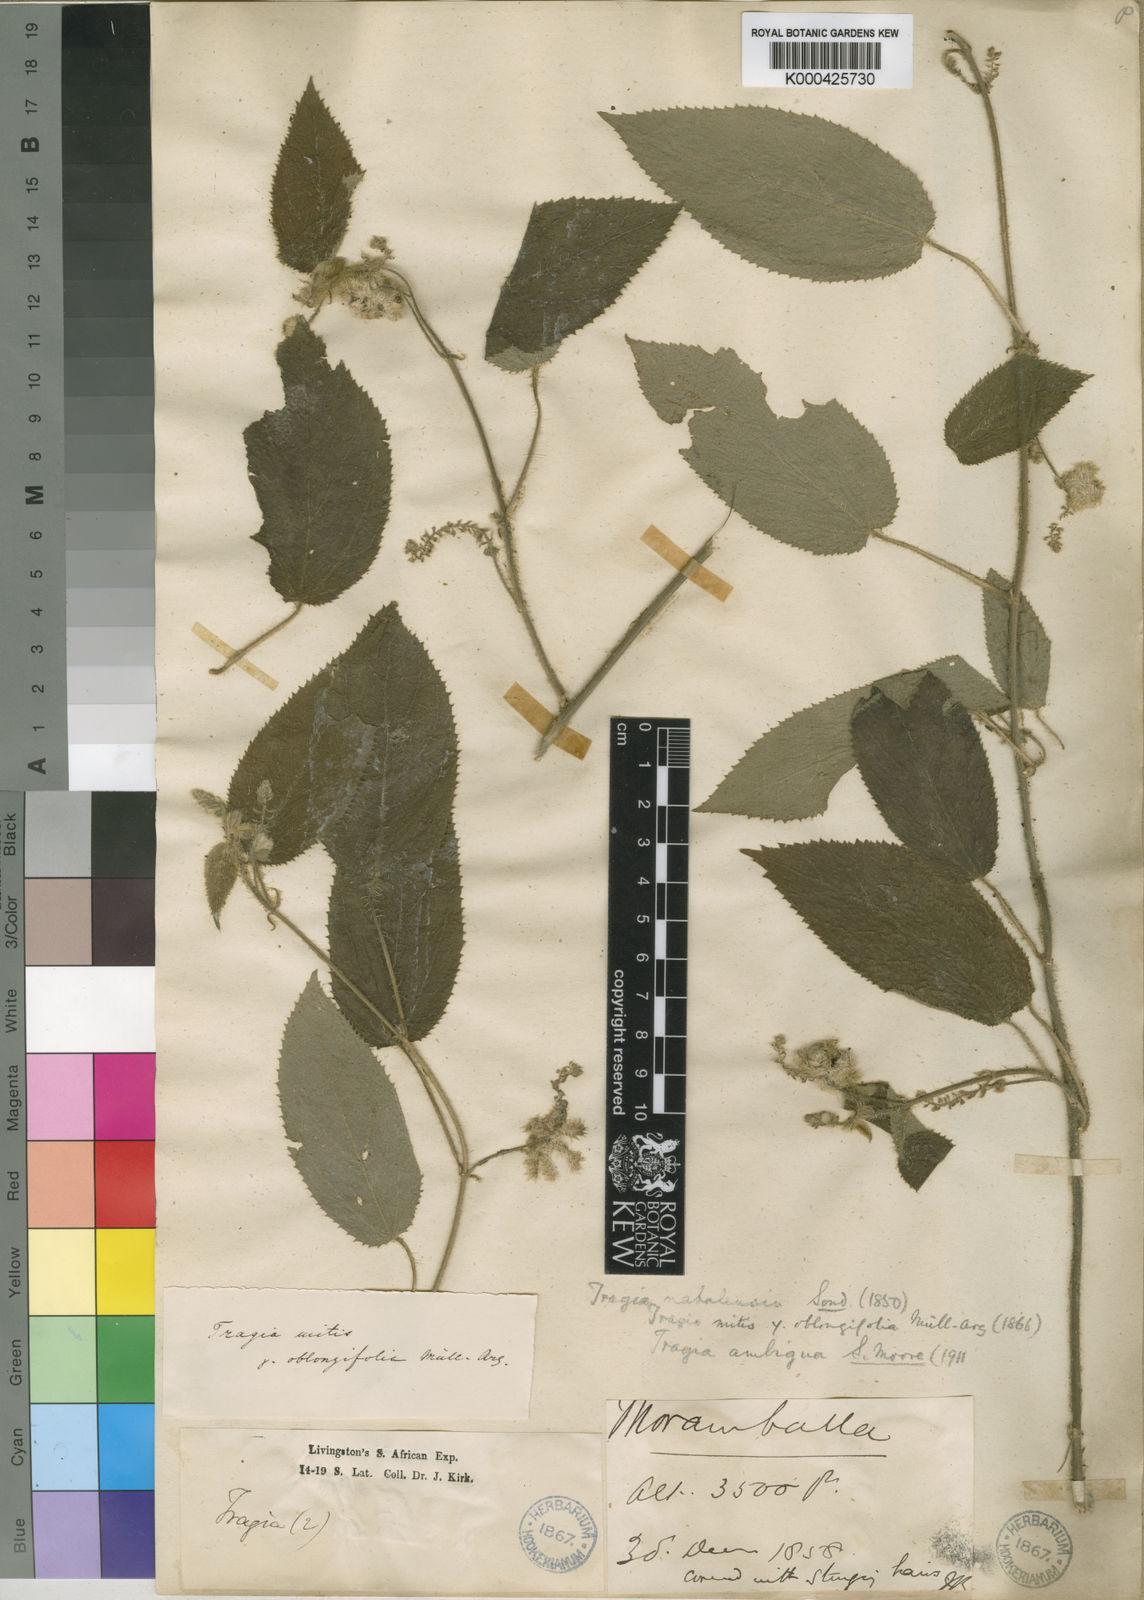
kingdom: Plantae
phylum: Tracheophyta
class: Magnoliopsida
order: Malpighiales
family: Euphorbiaceae
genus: Tragiella
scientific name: Tragiella natalensis
